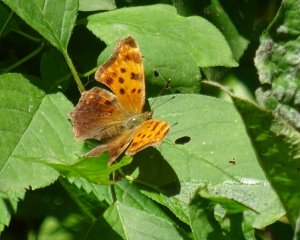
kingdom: Animalia
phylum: Arthropoda
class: Insecta
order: Lepidoptera
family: Nymphalidae
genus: Polygonia
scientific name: Polygonia comma
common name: Eastern Comma
